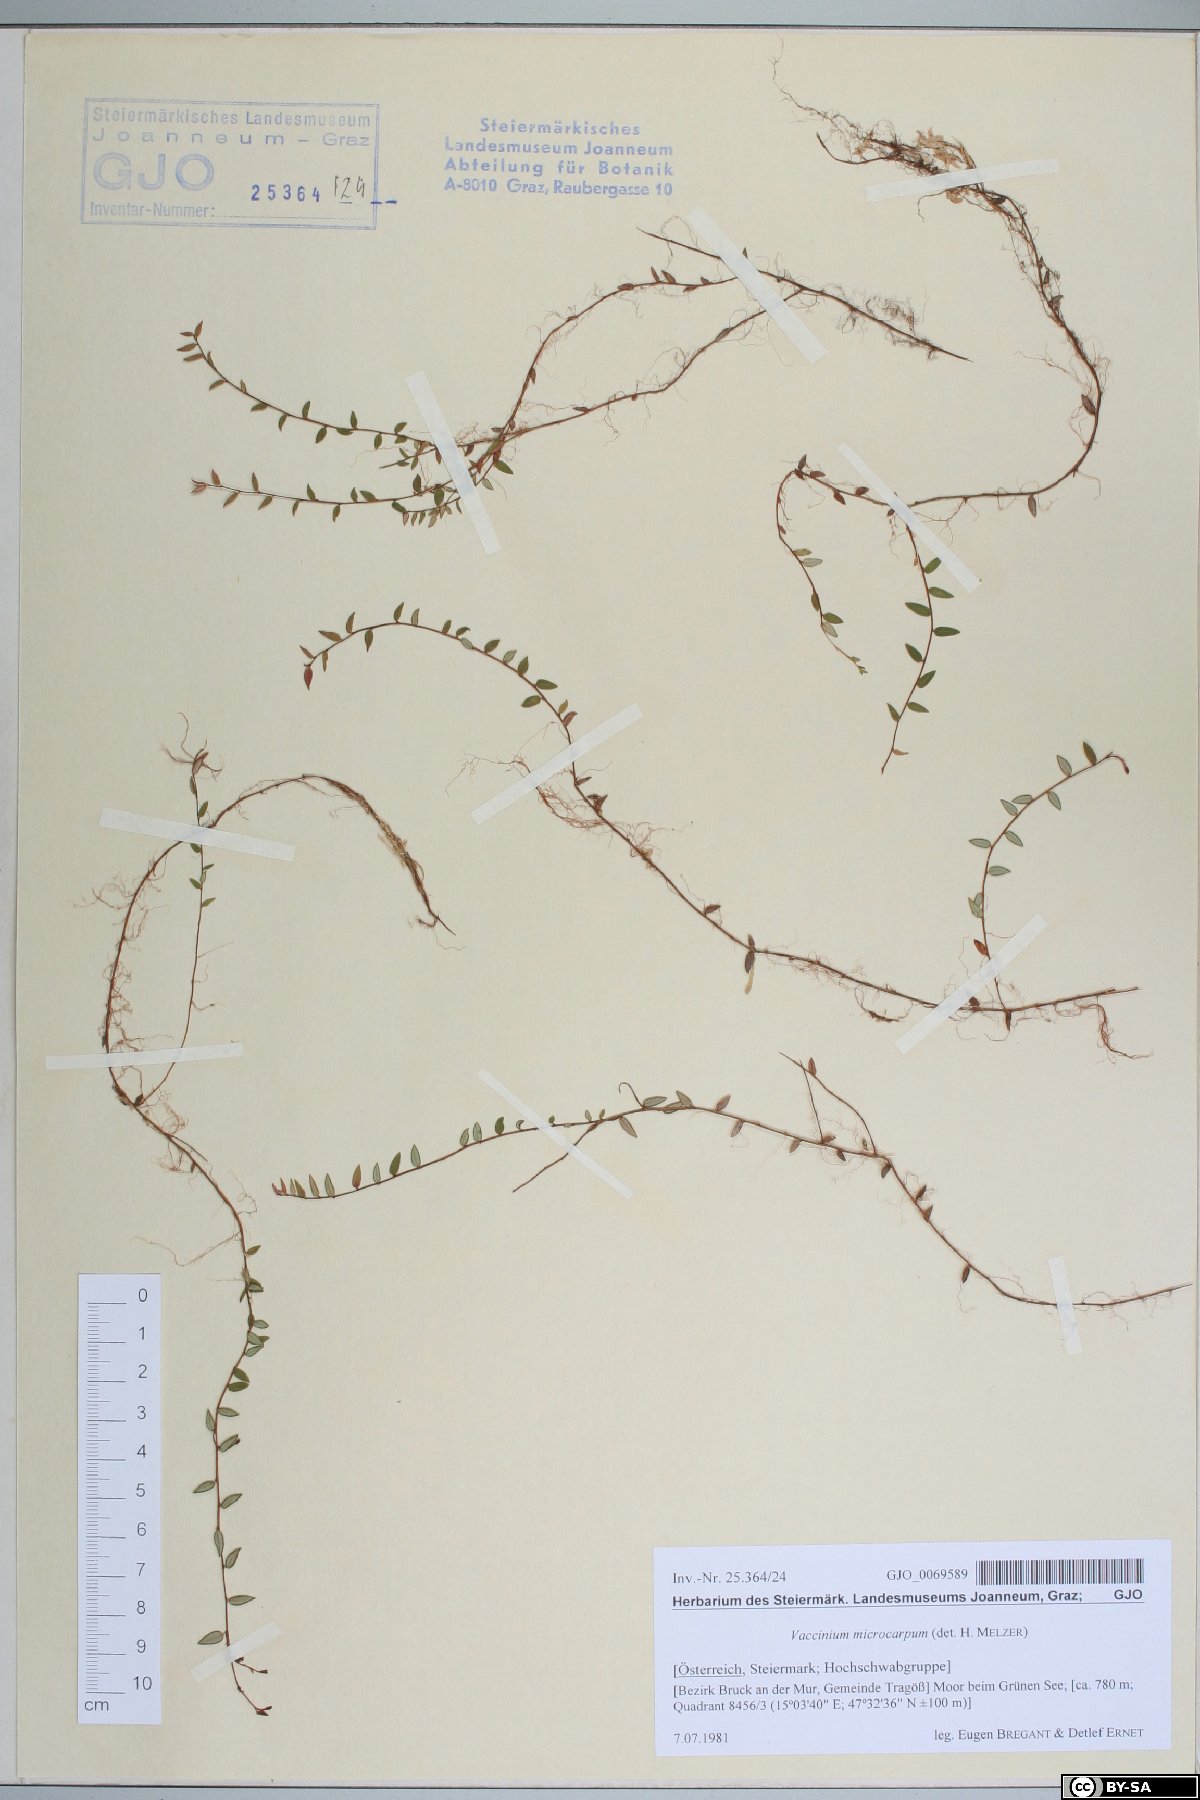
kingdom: Plantae
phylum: Tracheophyta
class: Magnoliopsida
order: Ericales
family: Ericaceae
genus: Vaccinium
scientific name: Vaccinium microcarpum
